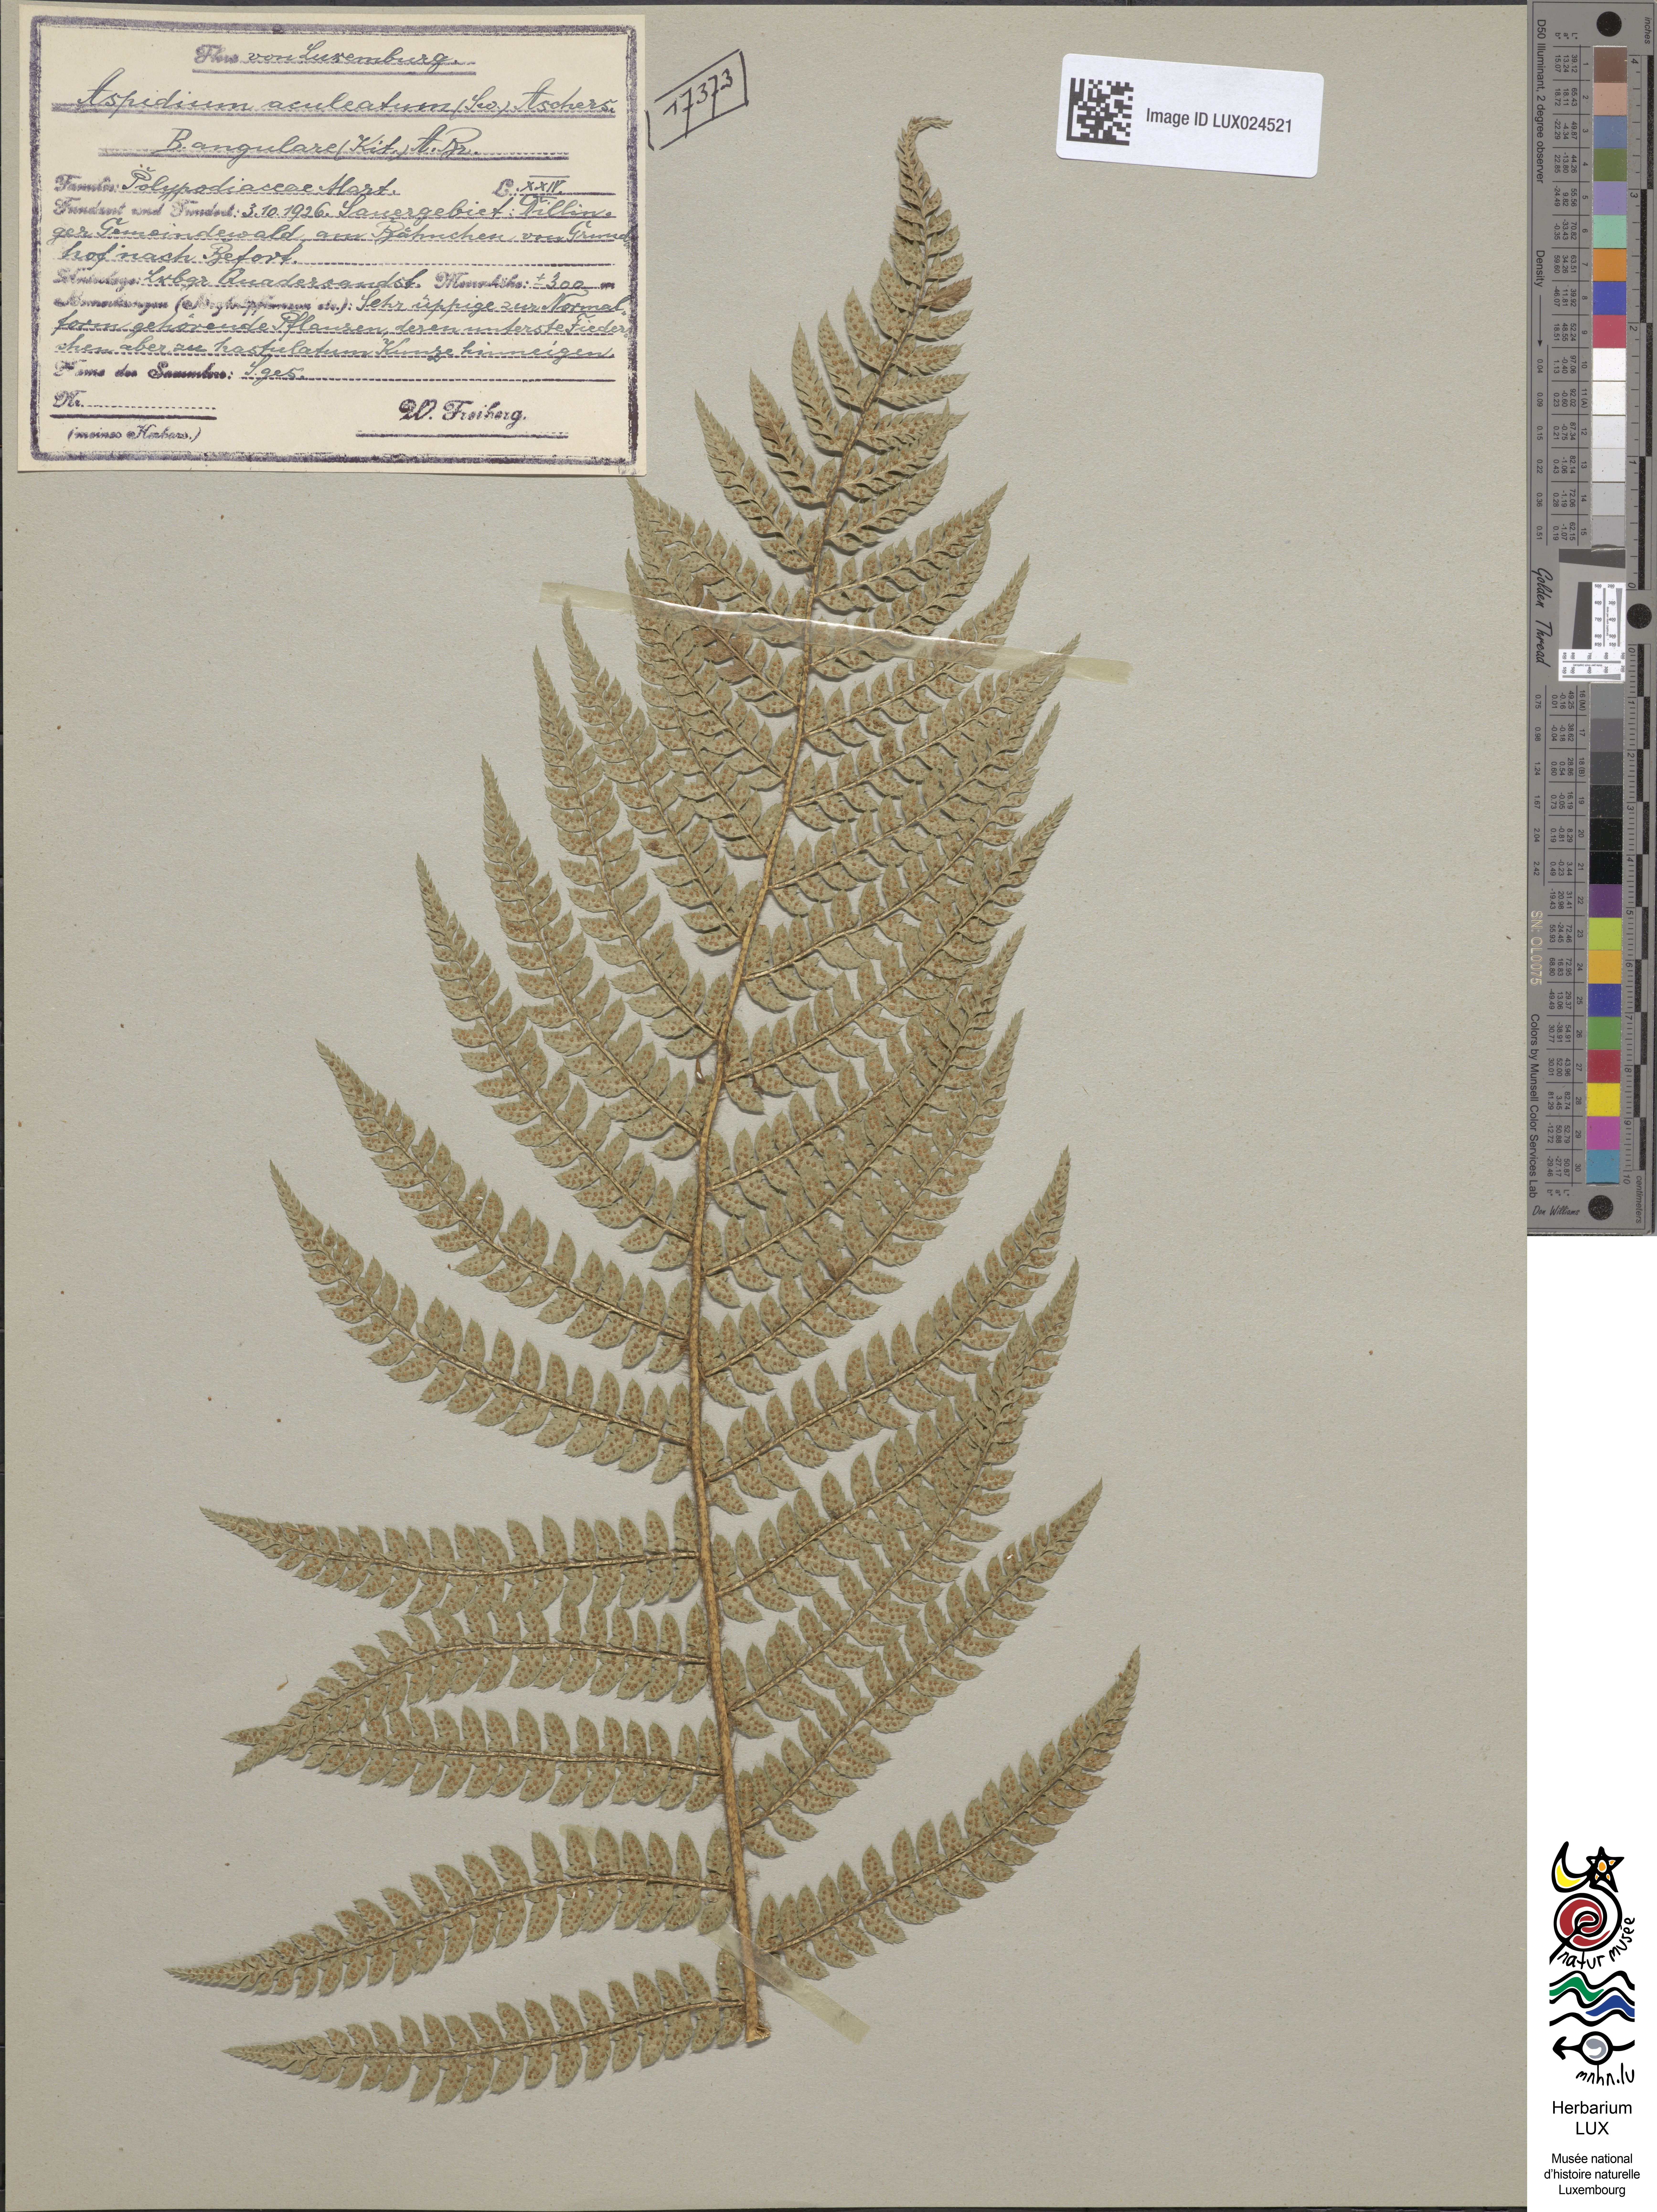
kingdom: Plantae
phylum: Tracheophyta
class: Polypodiopsida
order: Polypodiales
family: Dryopteridaceae
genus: Polystichum
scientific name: Polystichum setiferum
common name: Soft shield-fern
